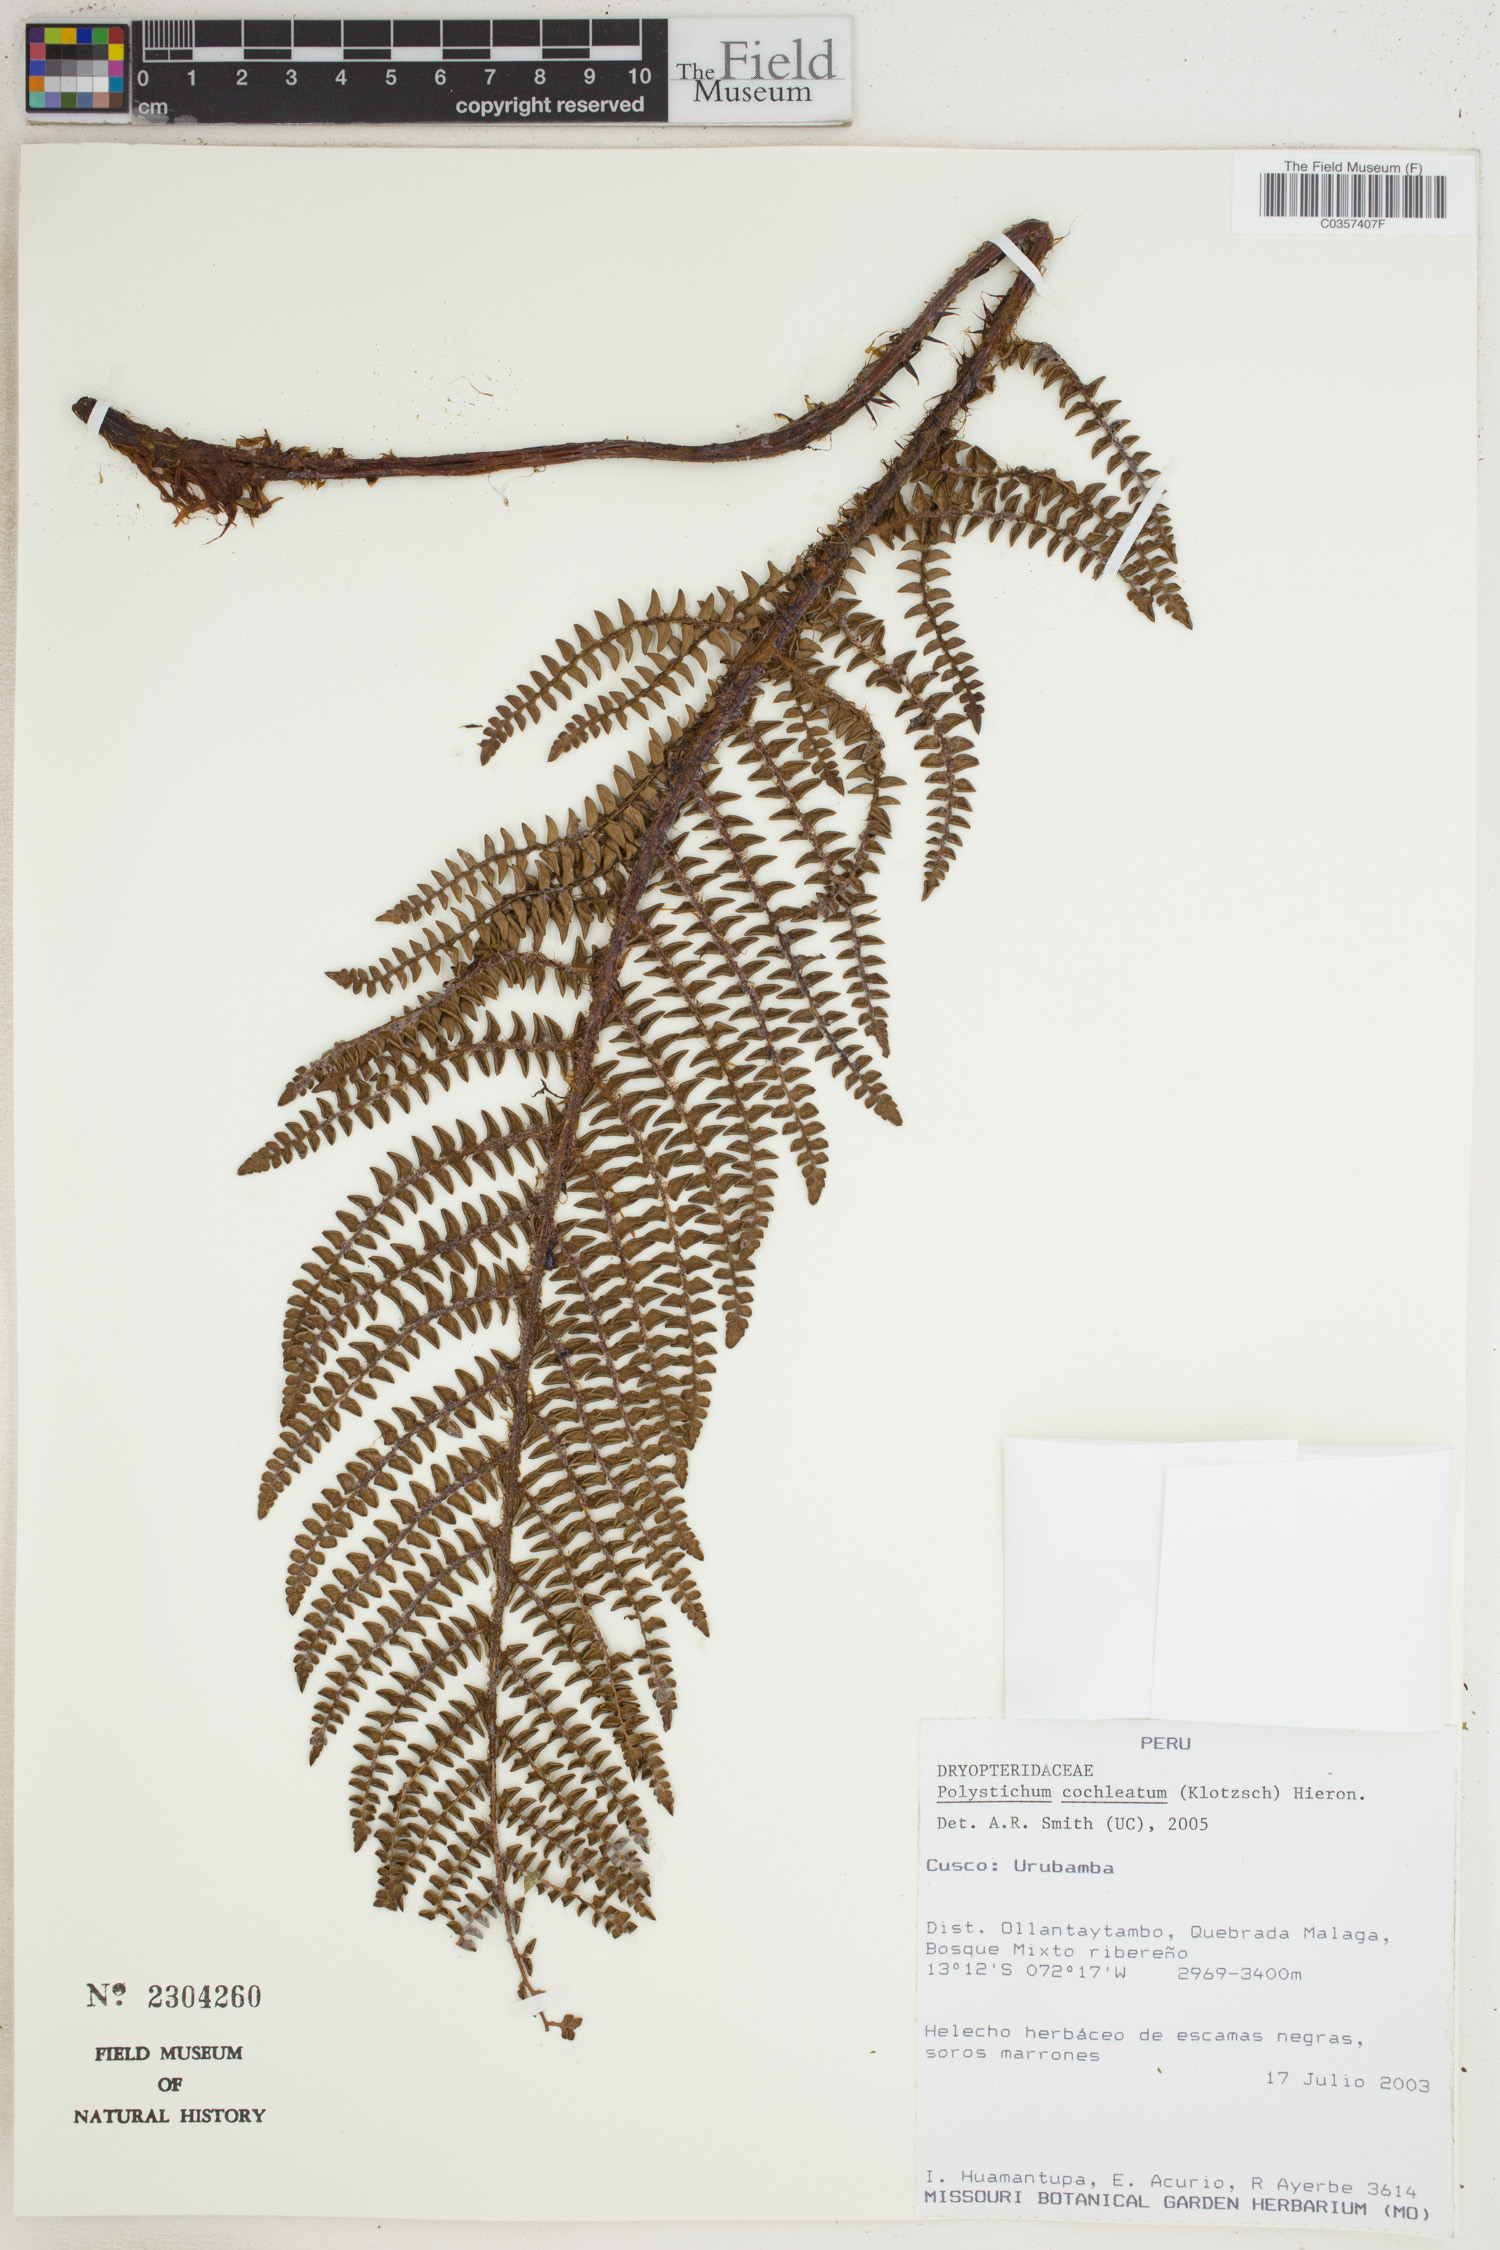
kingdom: Plantae
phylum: Tracheophyta
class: Polypodiopsida
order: Polypodiales
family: Dryopteridaceae
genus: Polystichum
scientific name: Polystichum cochleatum
